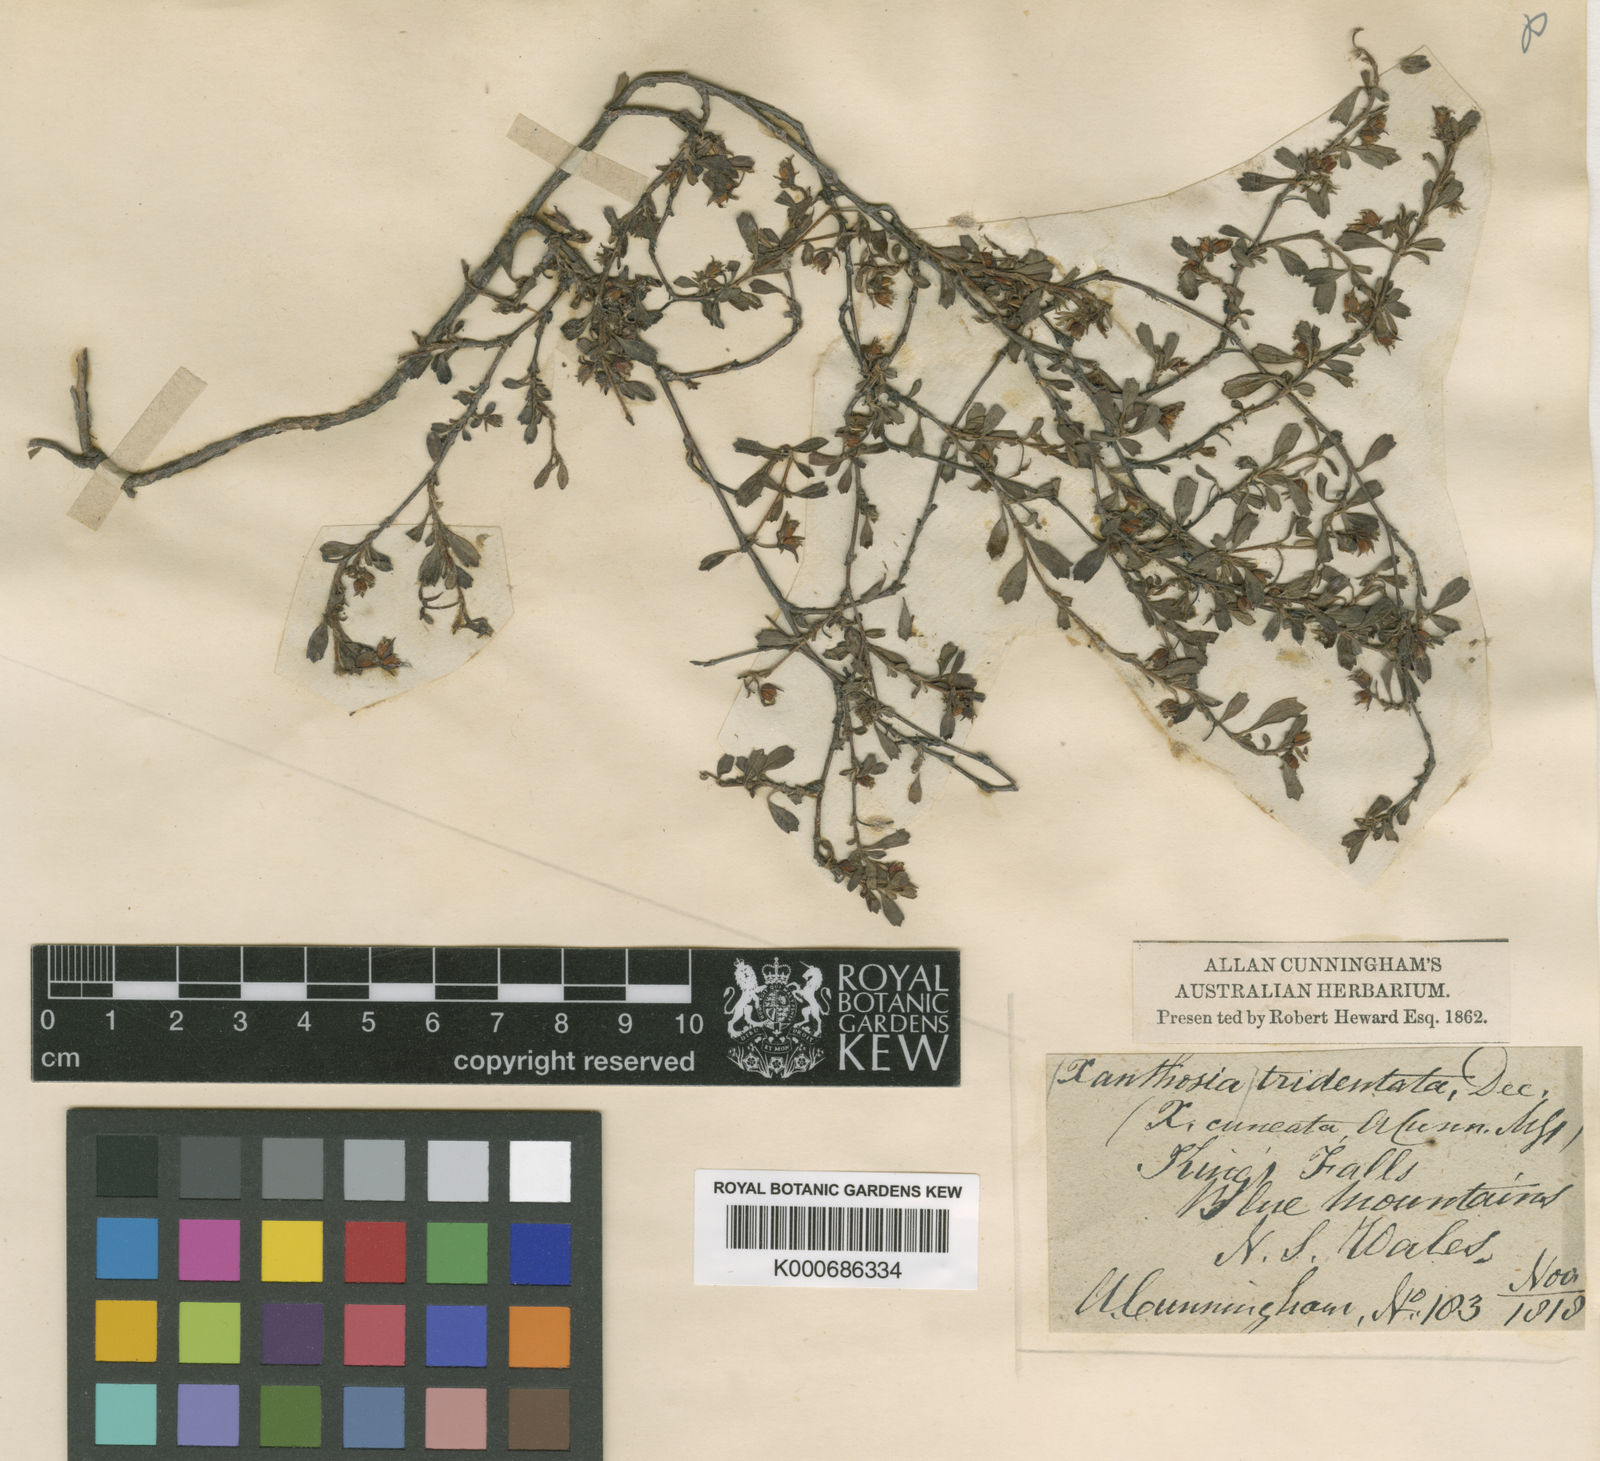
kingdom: Plantae
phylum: Tracheophyta
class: Magnoliopsida
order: Apiales
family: Apiaceae
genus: Xanthosia
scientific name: Xanthosia tridentata
